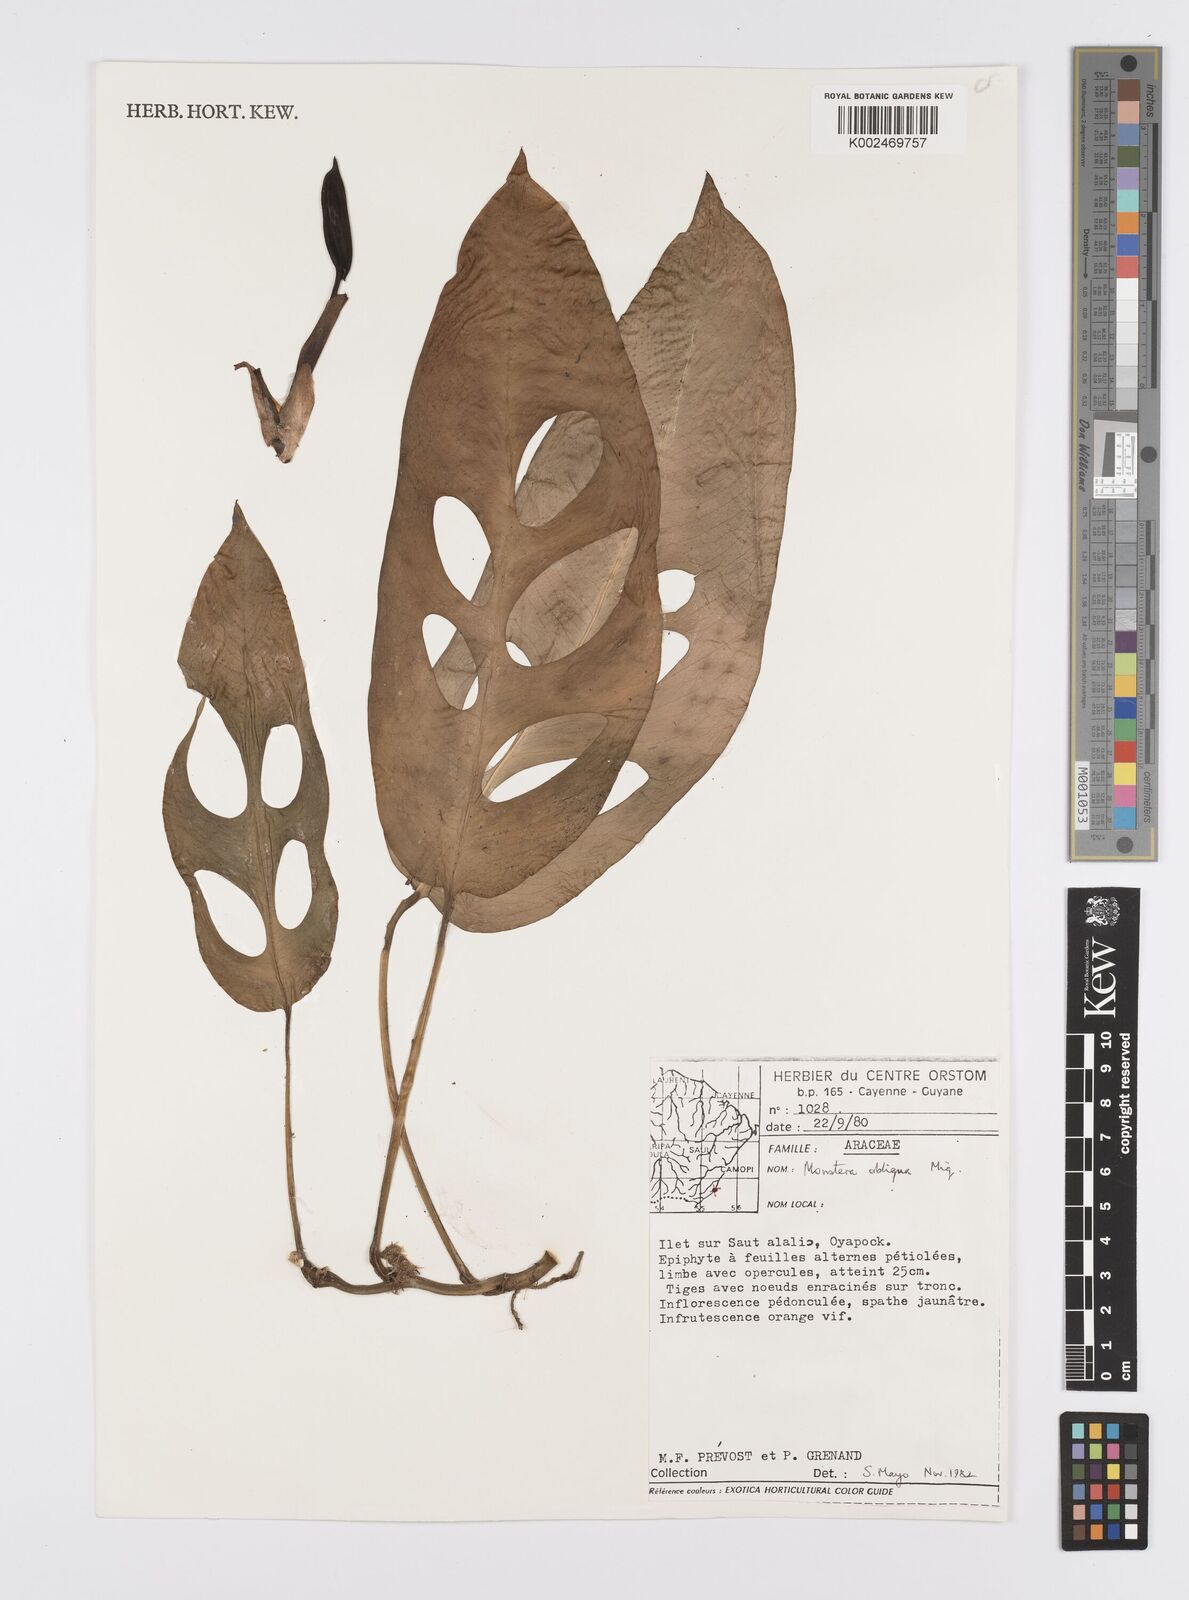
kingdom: Plantae
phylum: Tracheophyta
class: Liliopsida
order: Alismatales
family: Araceae
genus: Monstera
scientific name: Monstera obliqua
